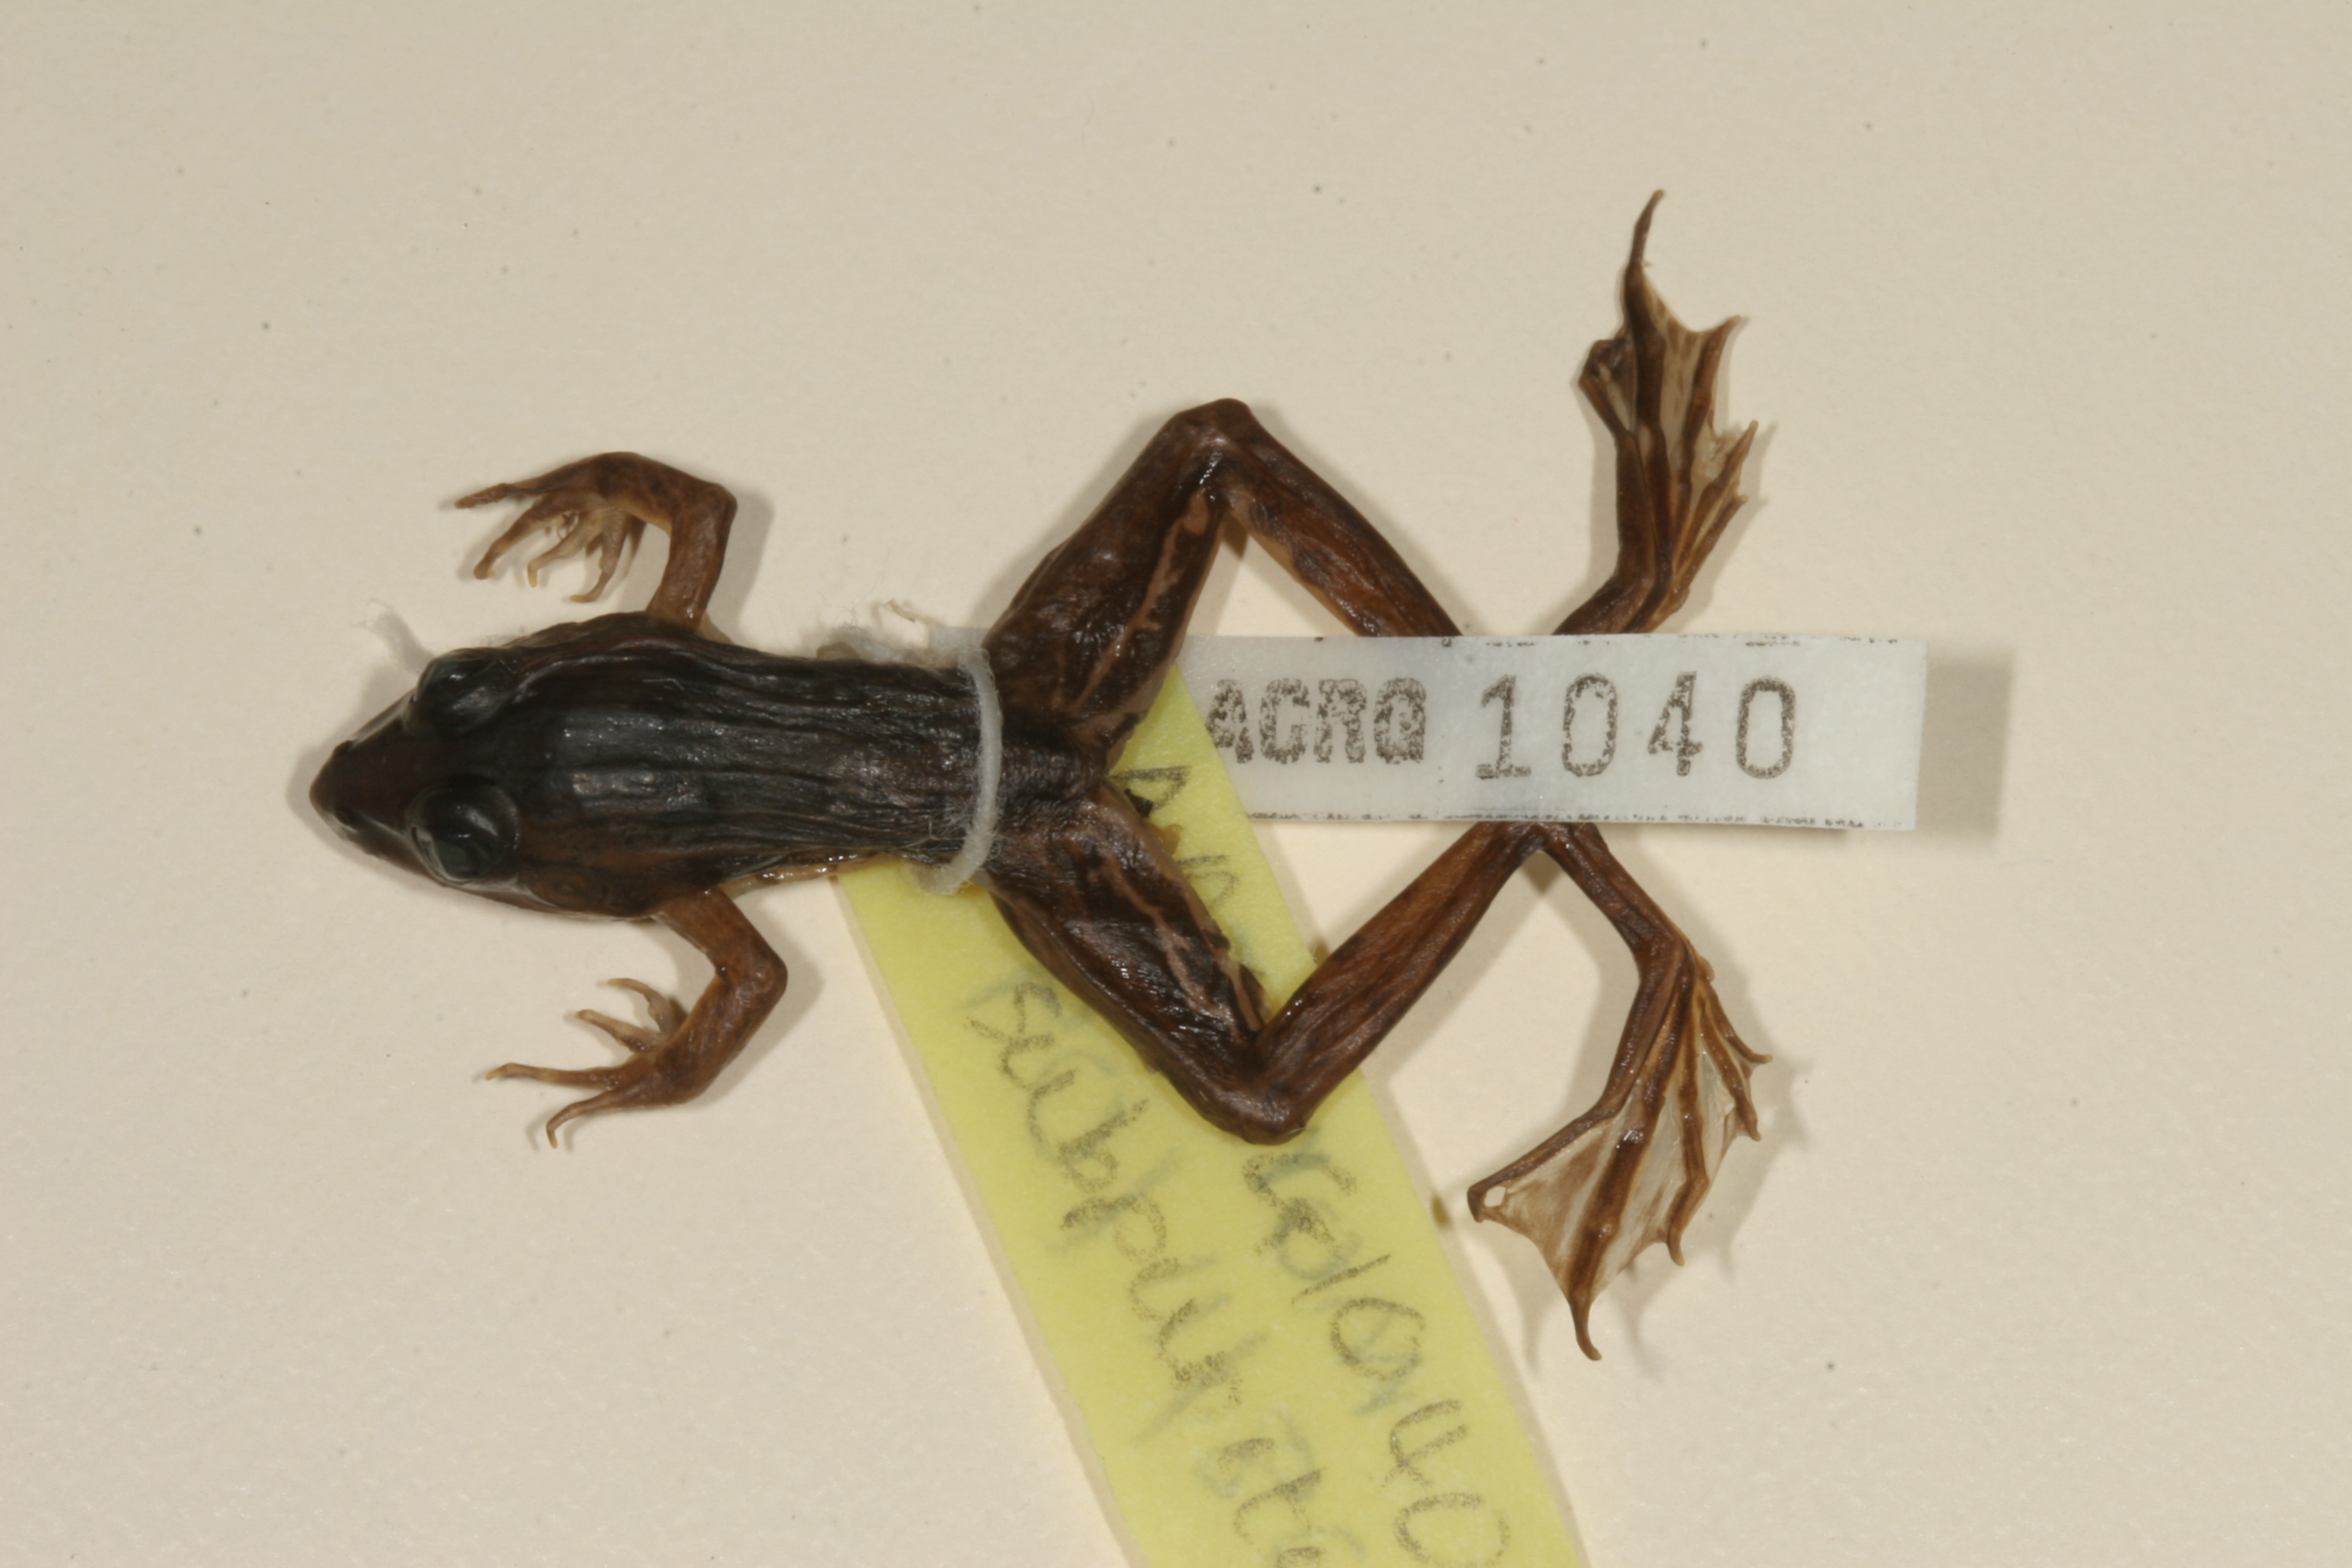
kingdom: Animalia
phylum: Chordata
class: Amphibia
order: Anura
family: Ptychadenidae
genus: Ptychadena
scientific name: Ptychadena subpunctata
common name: Bocage's grassland frog
